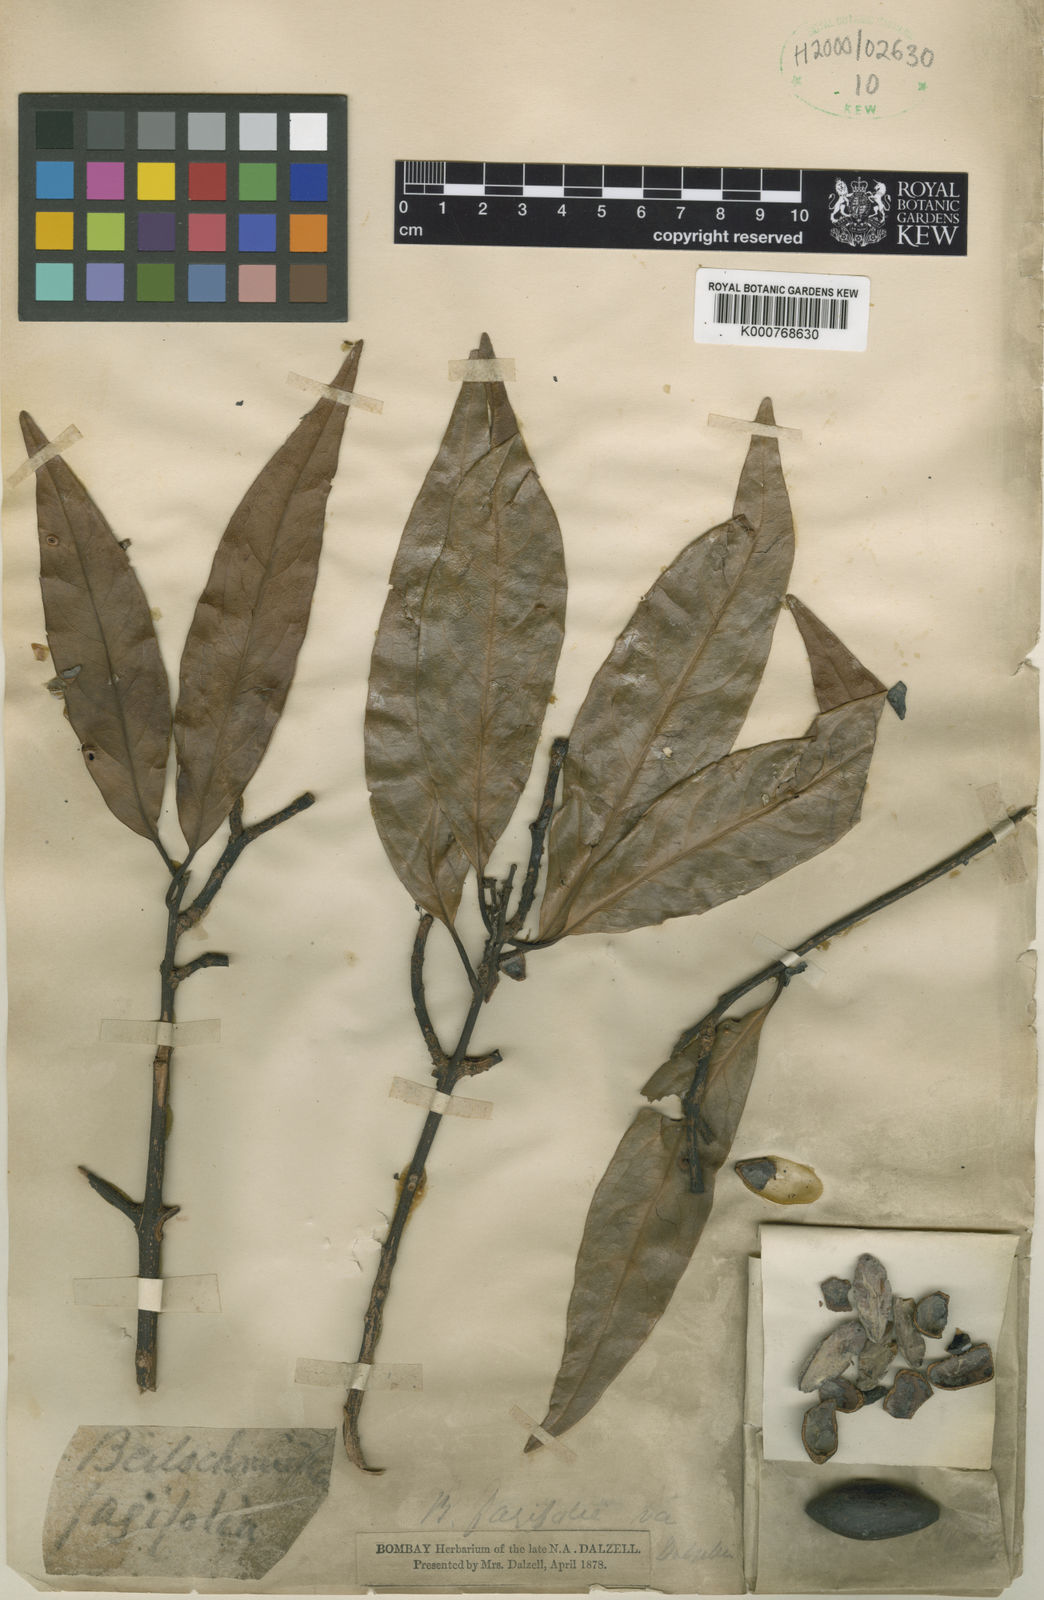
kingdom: Plantae
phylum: Tracheophyta
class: Magnoliopsida
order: Laurales
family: Lauraceae
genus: Beilschmiedia
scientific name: Beilschmiedia fagifolia
